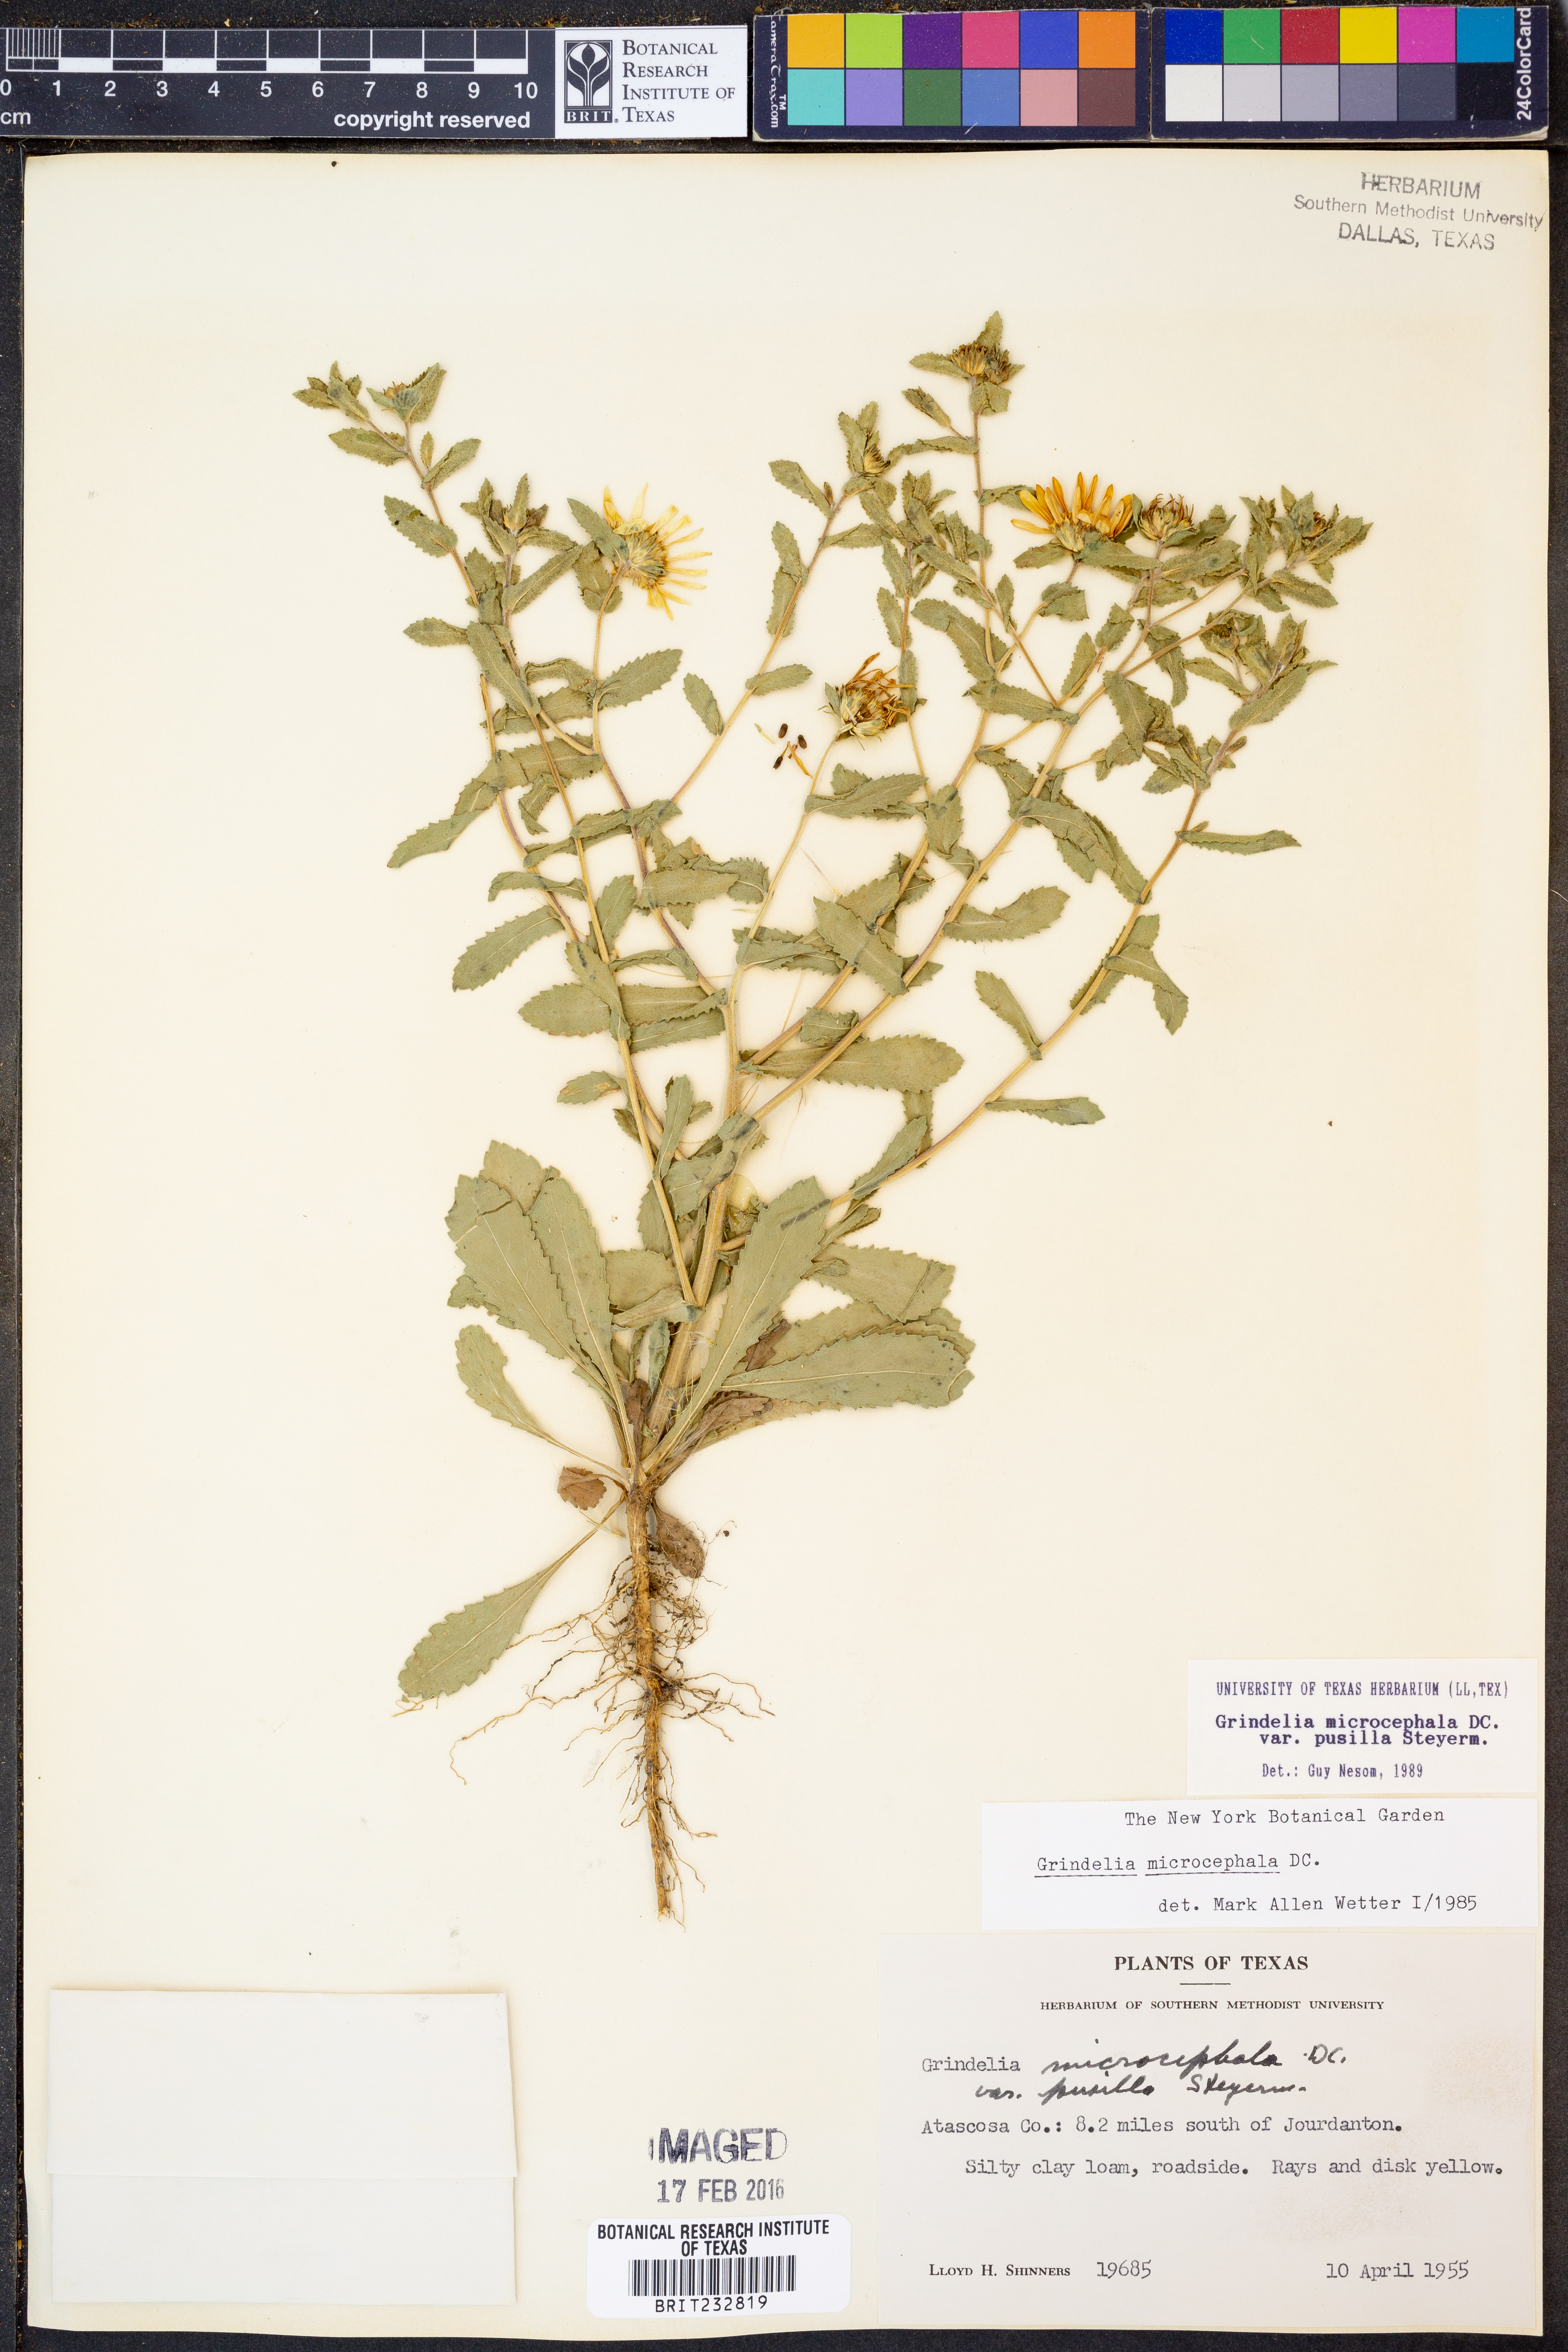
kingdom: Plantae
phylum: Tracheophyta
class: Magnoliopsida
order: Asterales
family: Asteraceae
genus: Grindelia
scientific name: Grindelia pusilla
